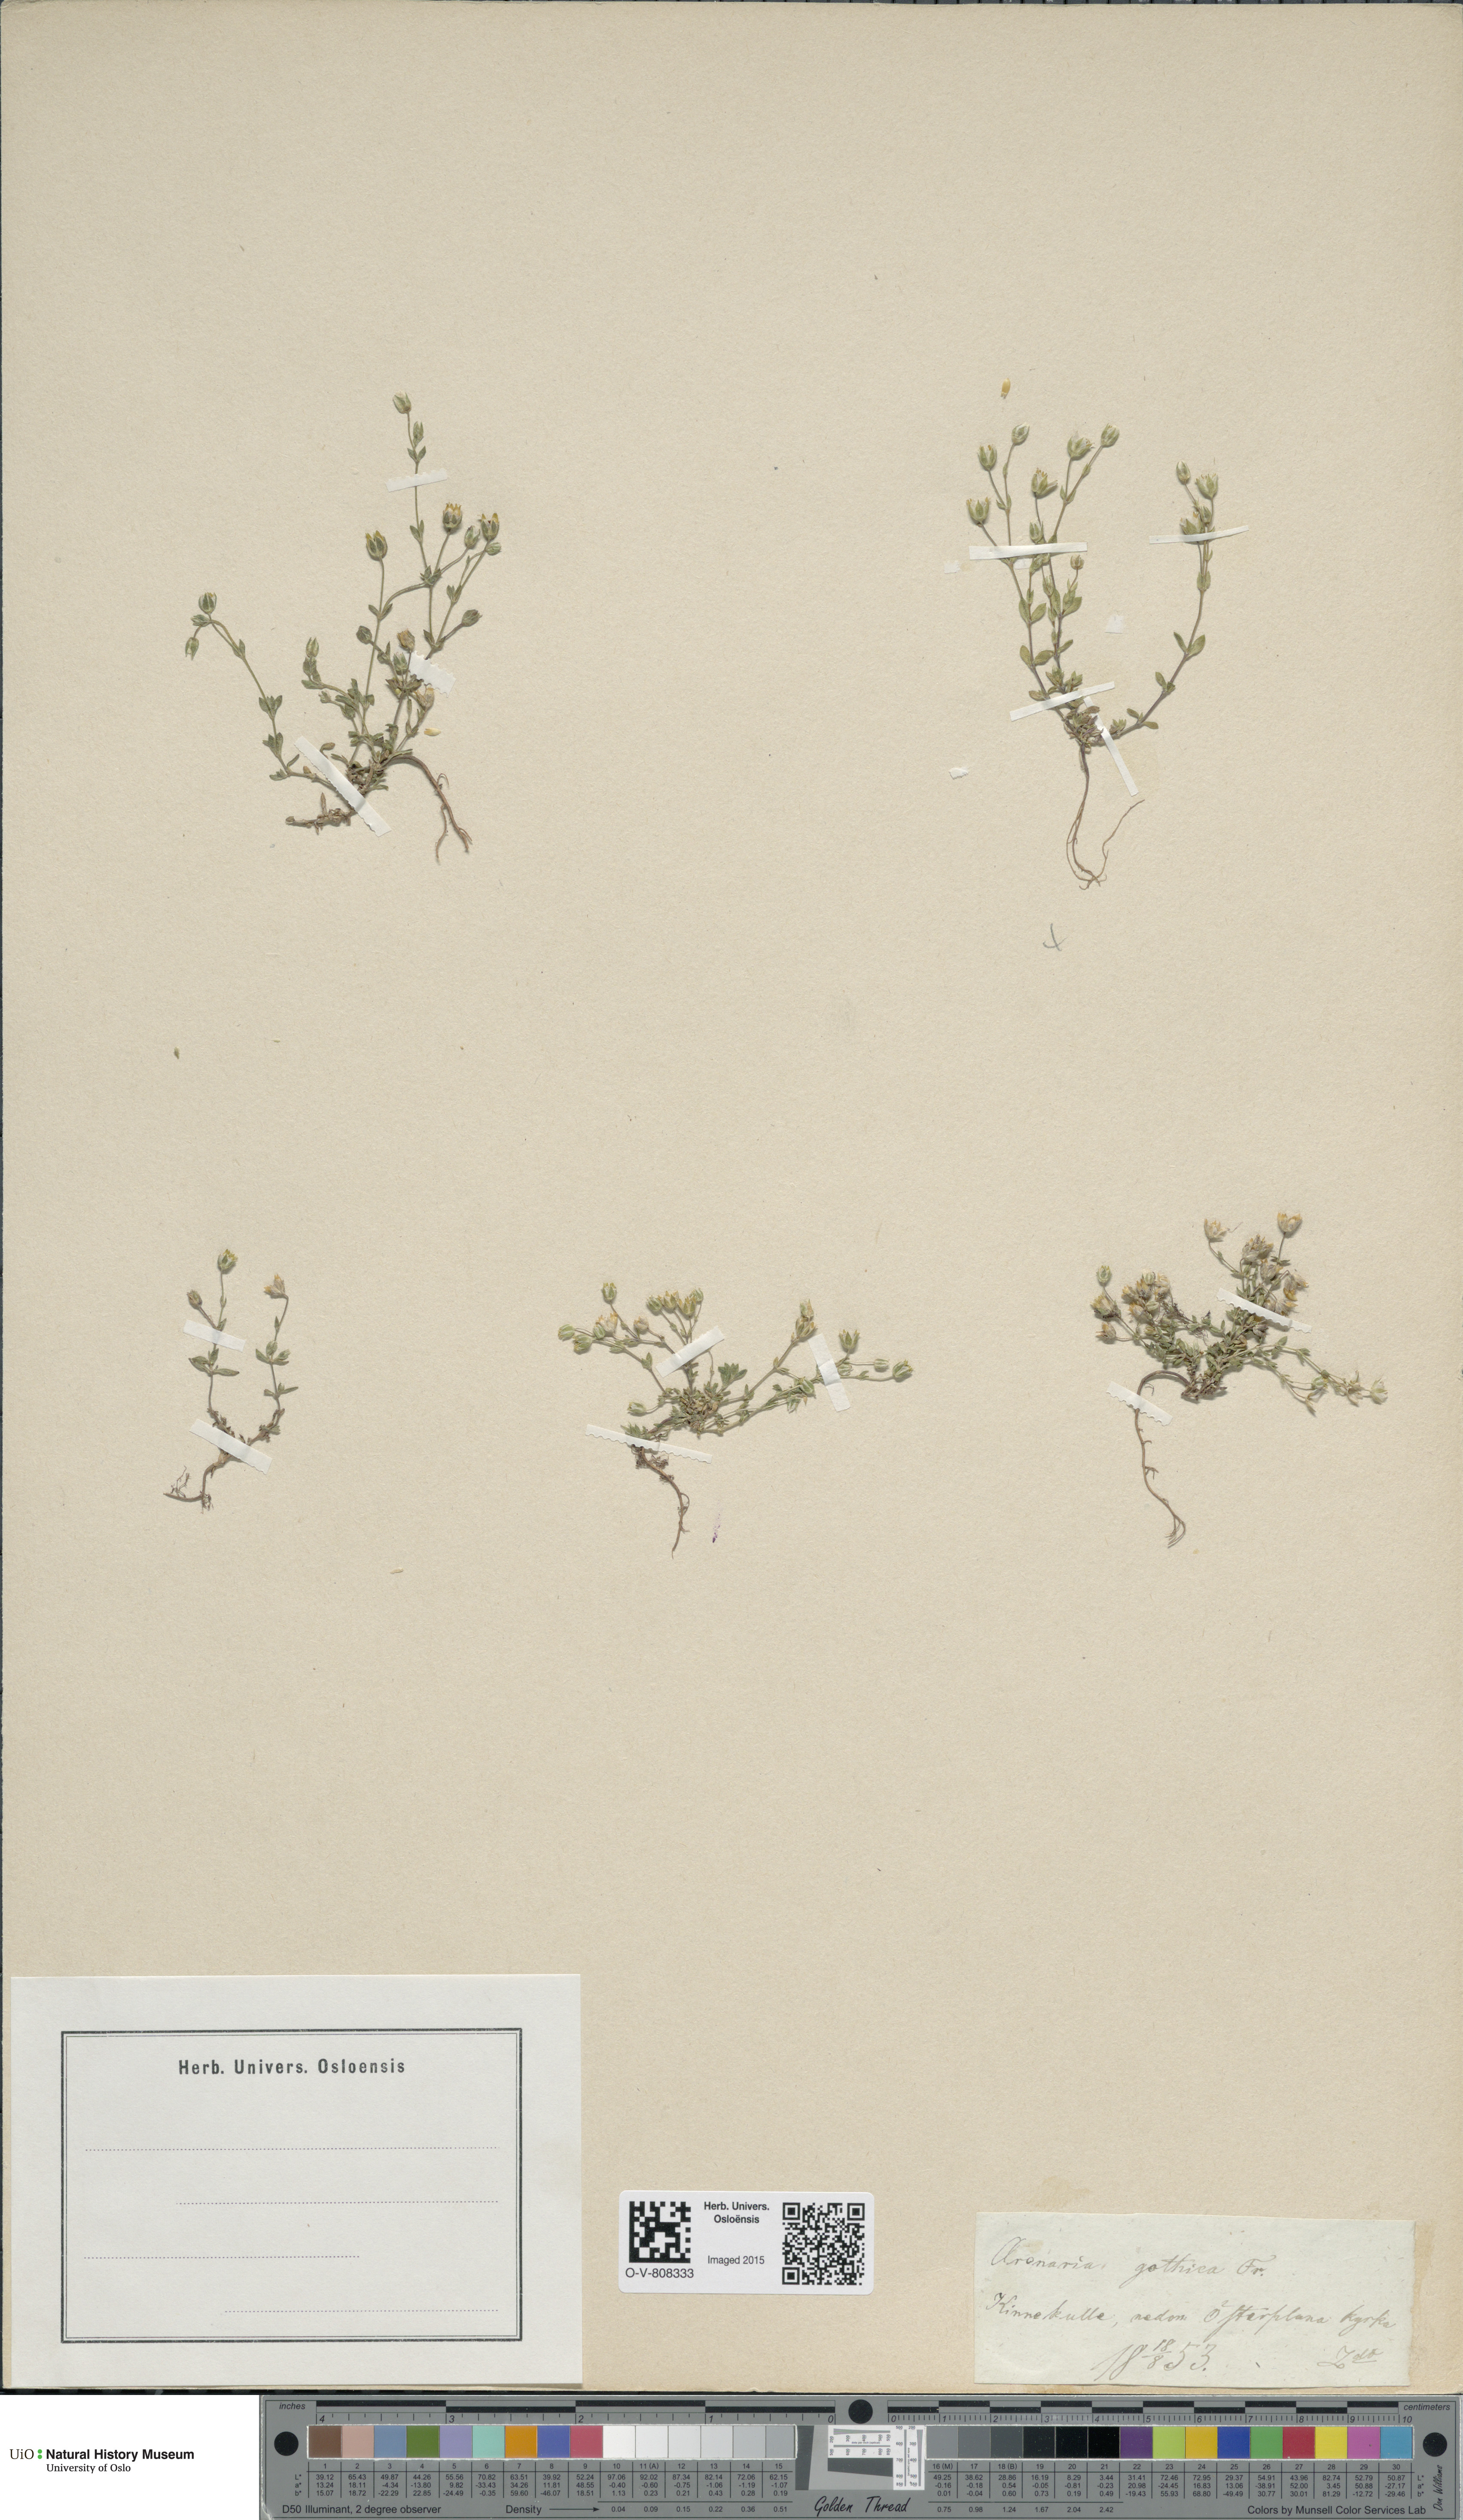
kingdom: Plantae
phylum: Tracheophyta
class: Magnoliopsida
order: Caryophyllales
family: Caryophyllaceae
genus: Arenaria
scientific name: Arenaria gothica
